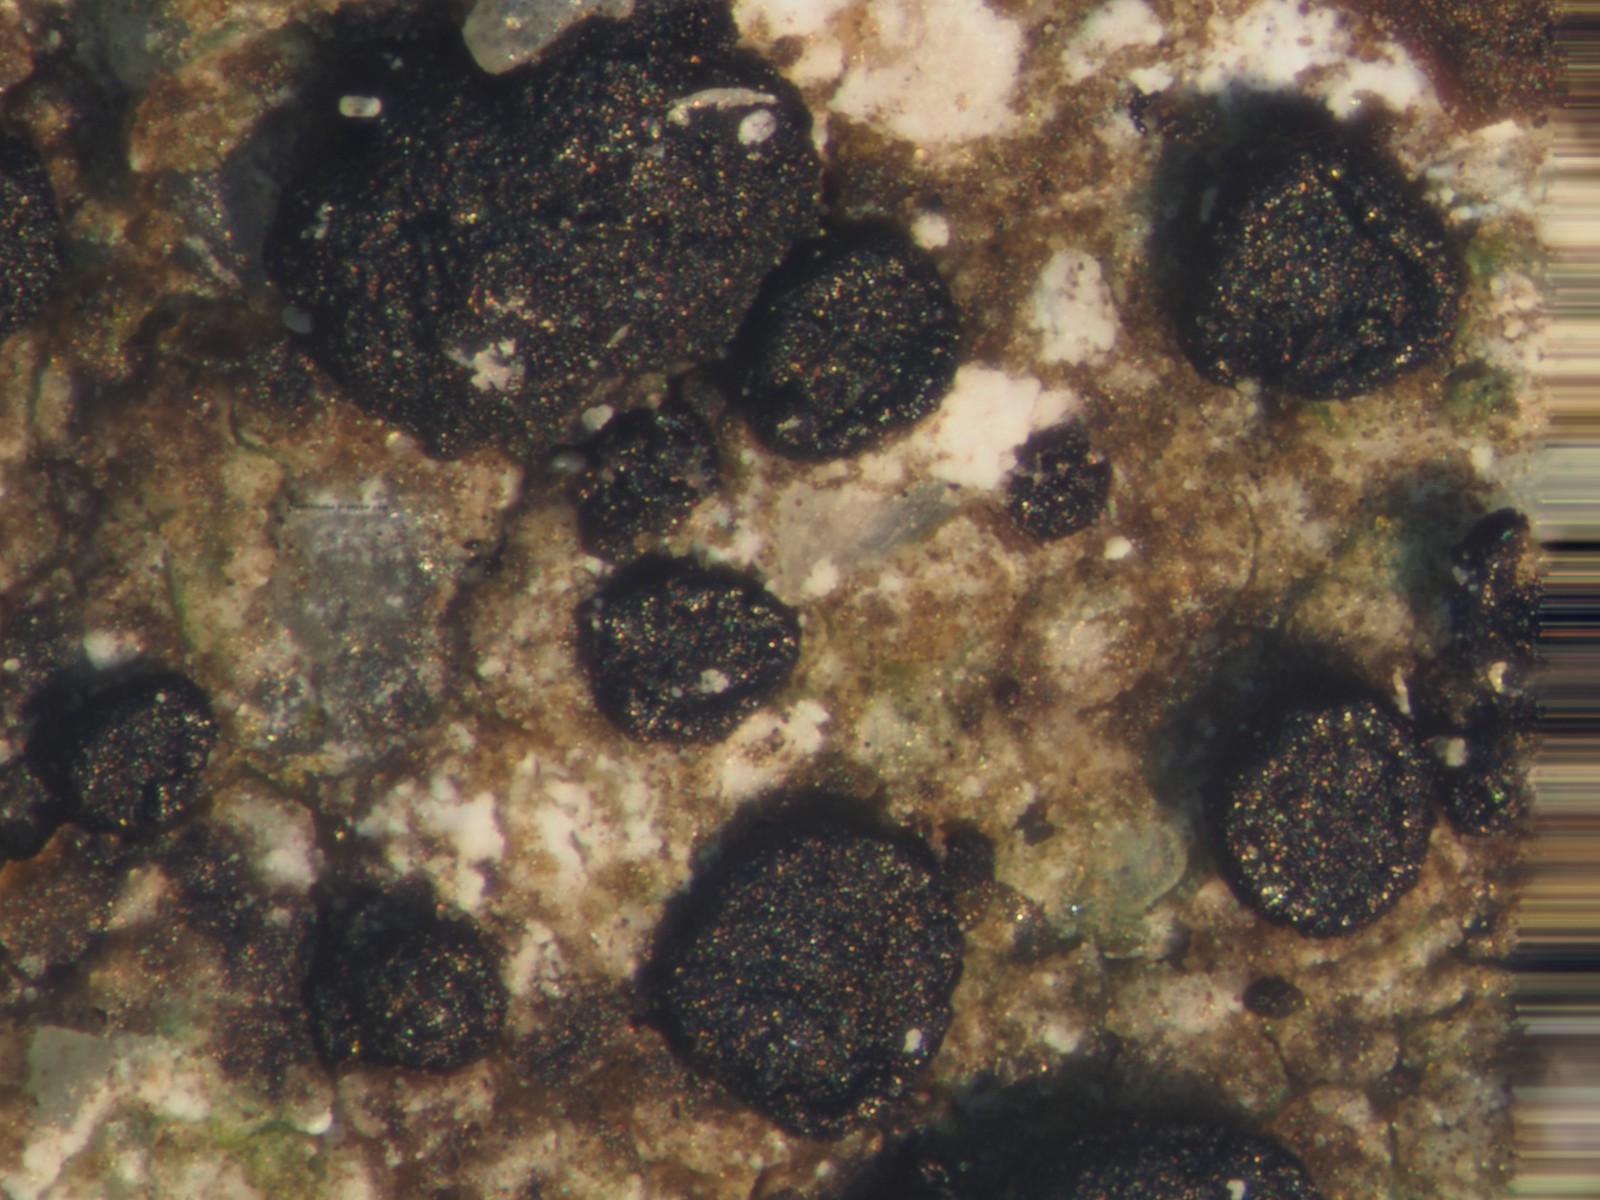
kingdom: Fungi
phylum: Ascomycota
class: Lecanoromycetes
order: Lecideales
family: Lecideaceae
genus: Clauzadea
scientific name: Clauzadea monticola
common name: bjerg-ruinlav
